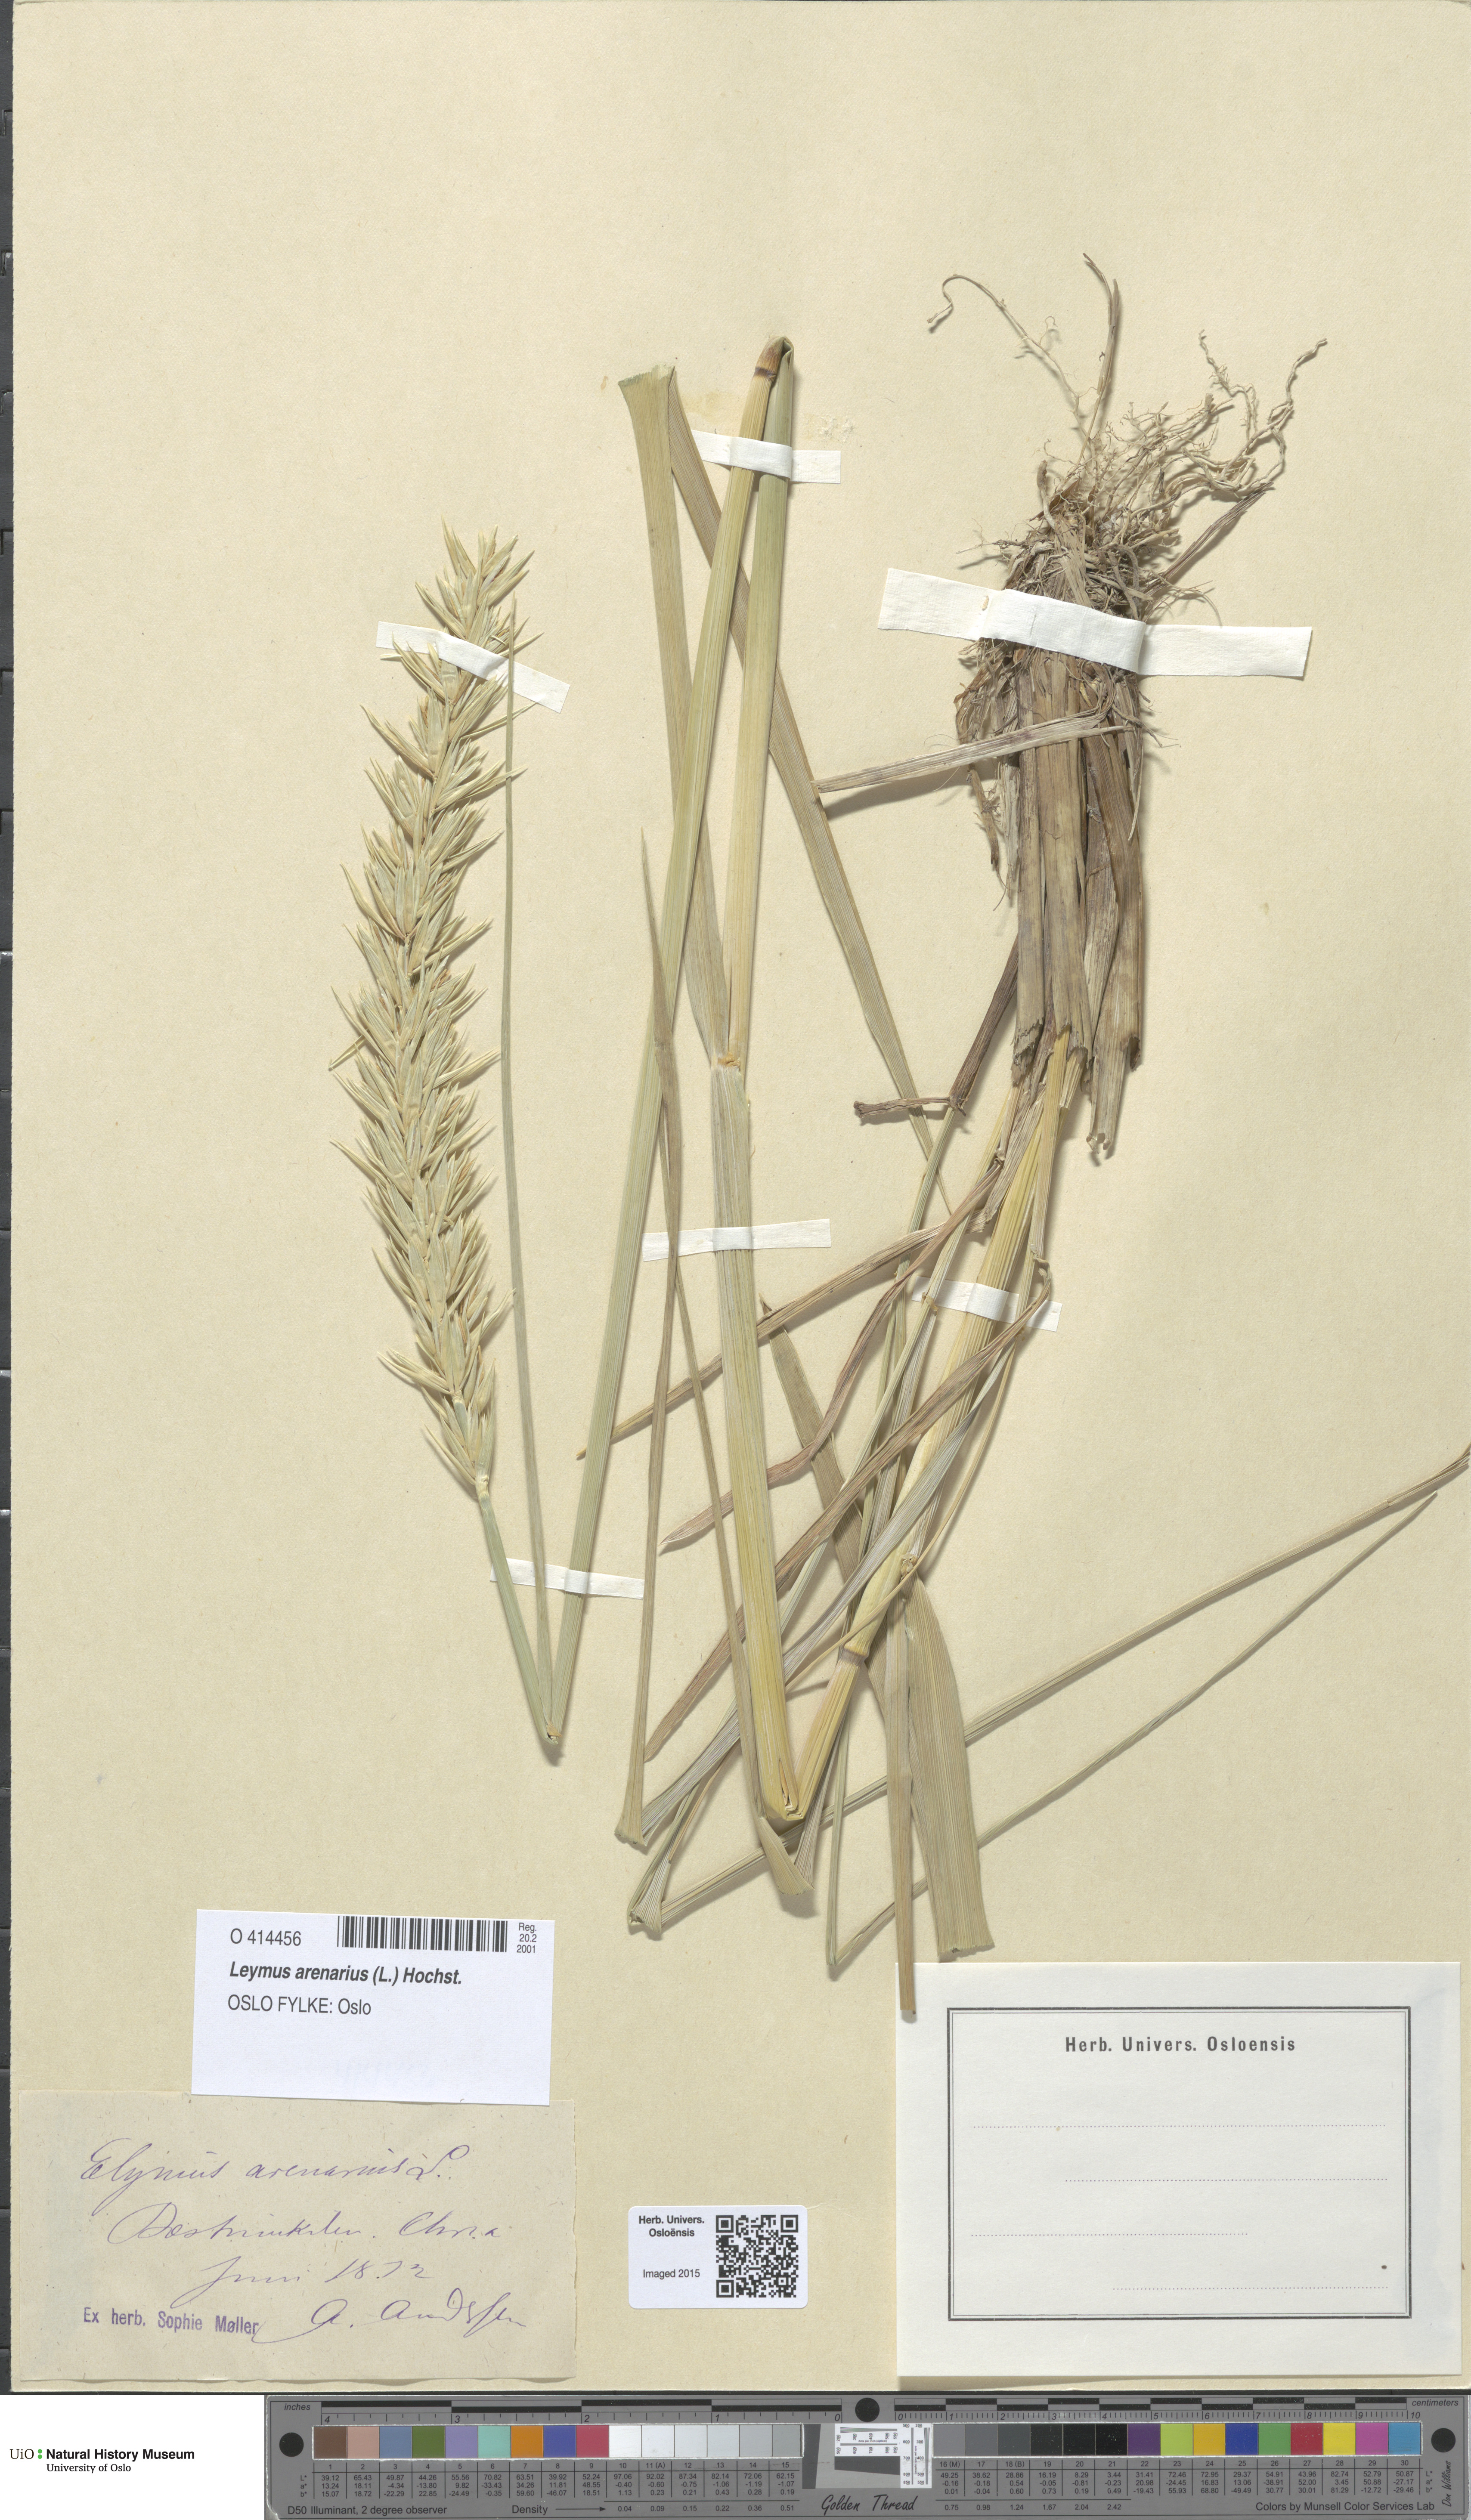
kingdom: Plantae
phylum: Tracheophyta
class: Liliopsida
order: Poales
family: Poaceae
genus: Leymus
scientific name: Leymus arenarius
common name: Lyme-grass
